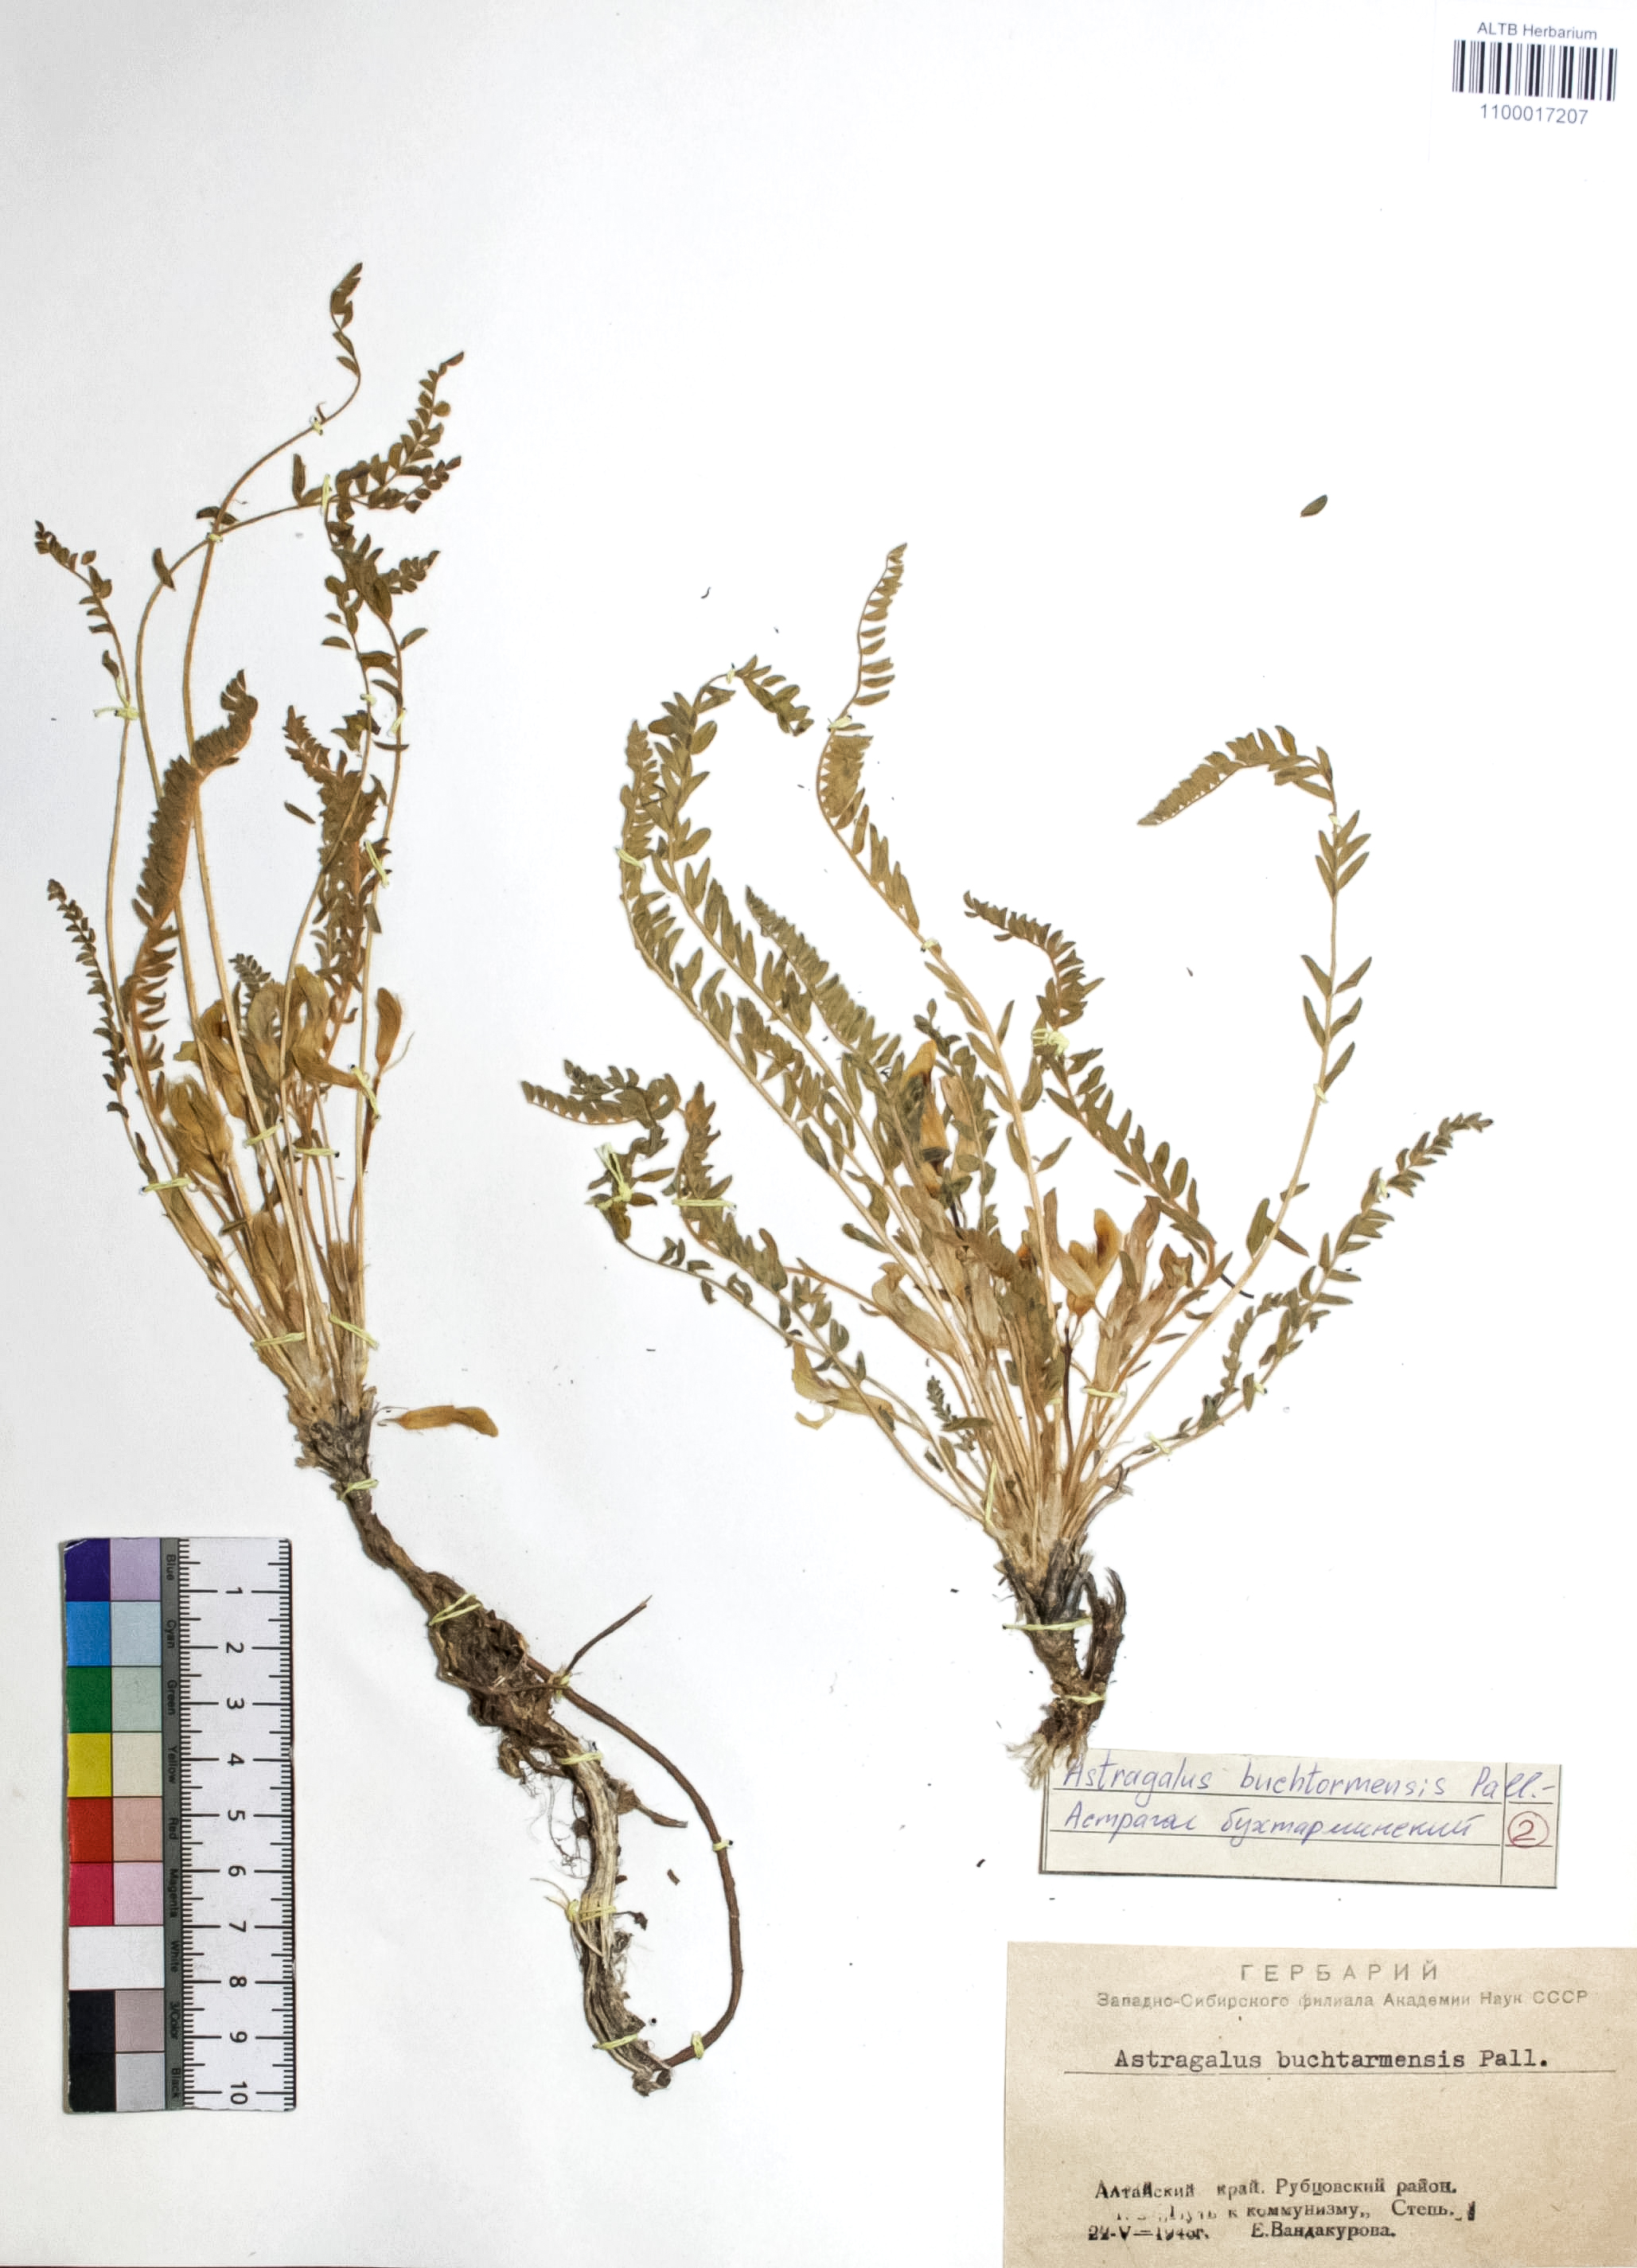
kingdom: Plantae
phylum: Tracheophyta
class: Magnoliopsida
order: Fabales
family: Fabaceae
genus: Astragalus
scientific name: Astragalus buchtormensis
